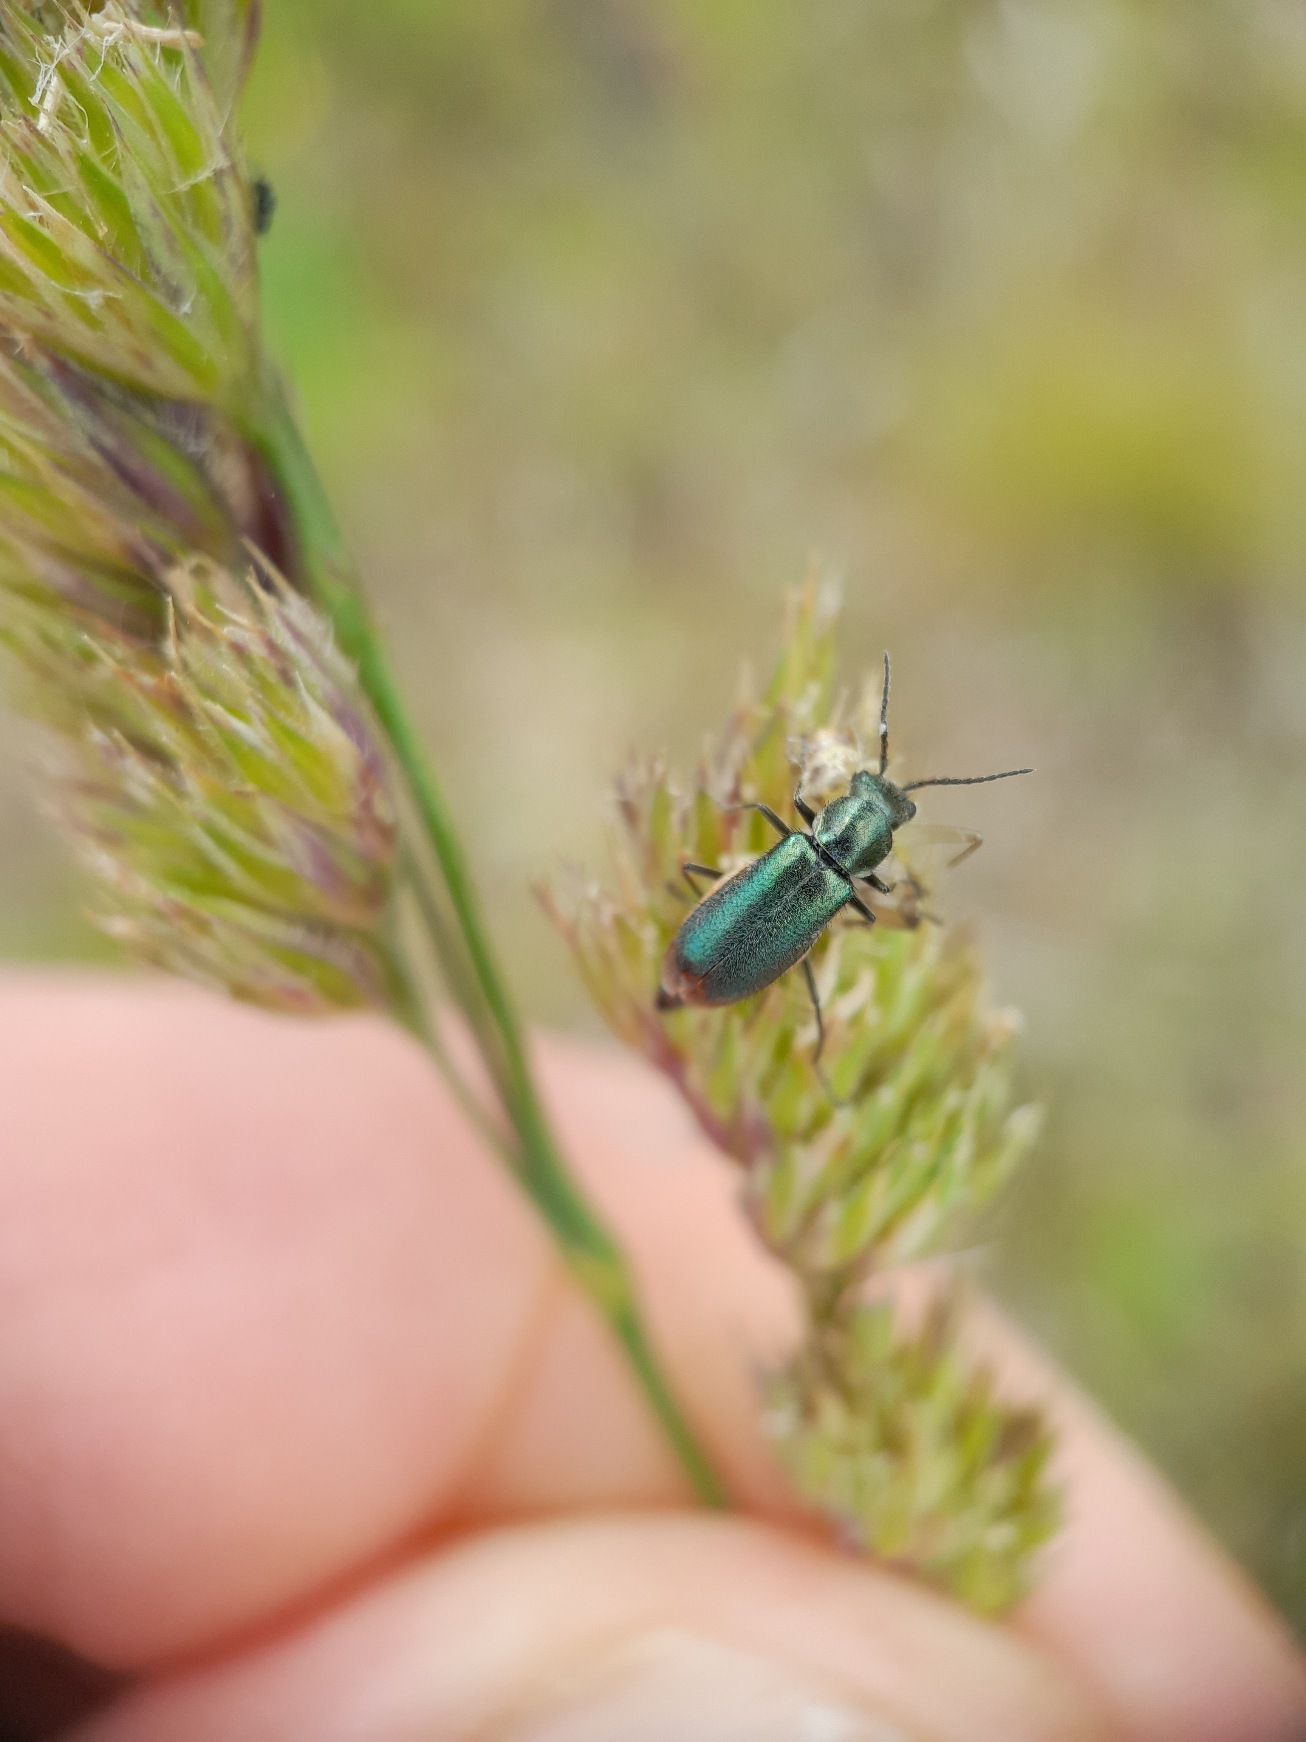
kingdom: Animalia
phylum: Arthropoda
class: Insecta
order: Coleoptera
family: Malachiidae
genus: Cordylepherus
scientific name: Cordylepherus viridis
